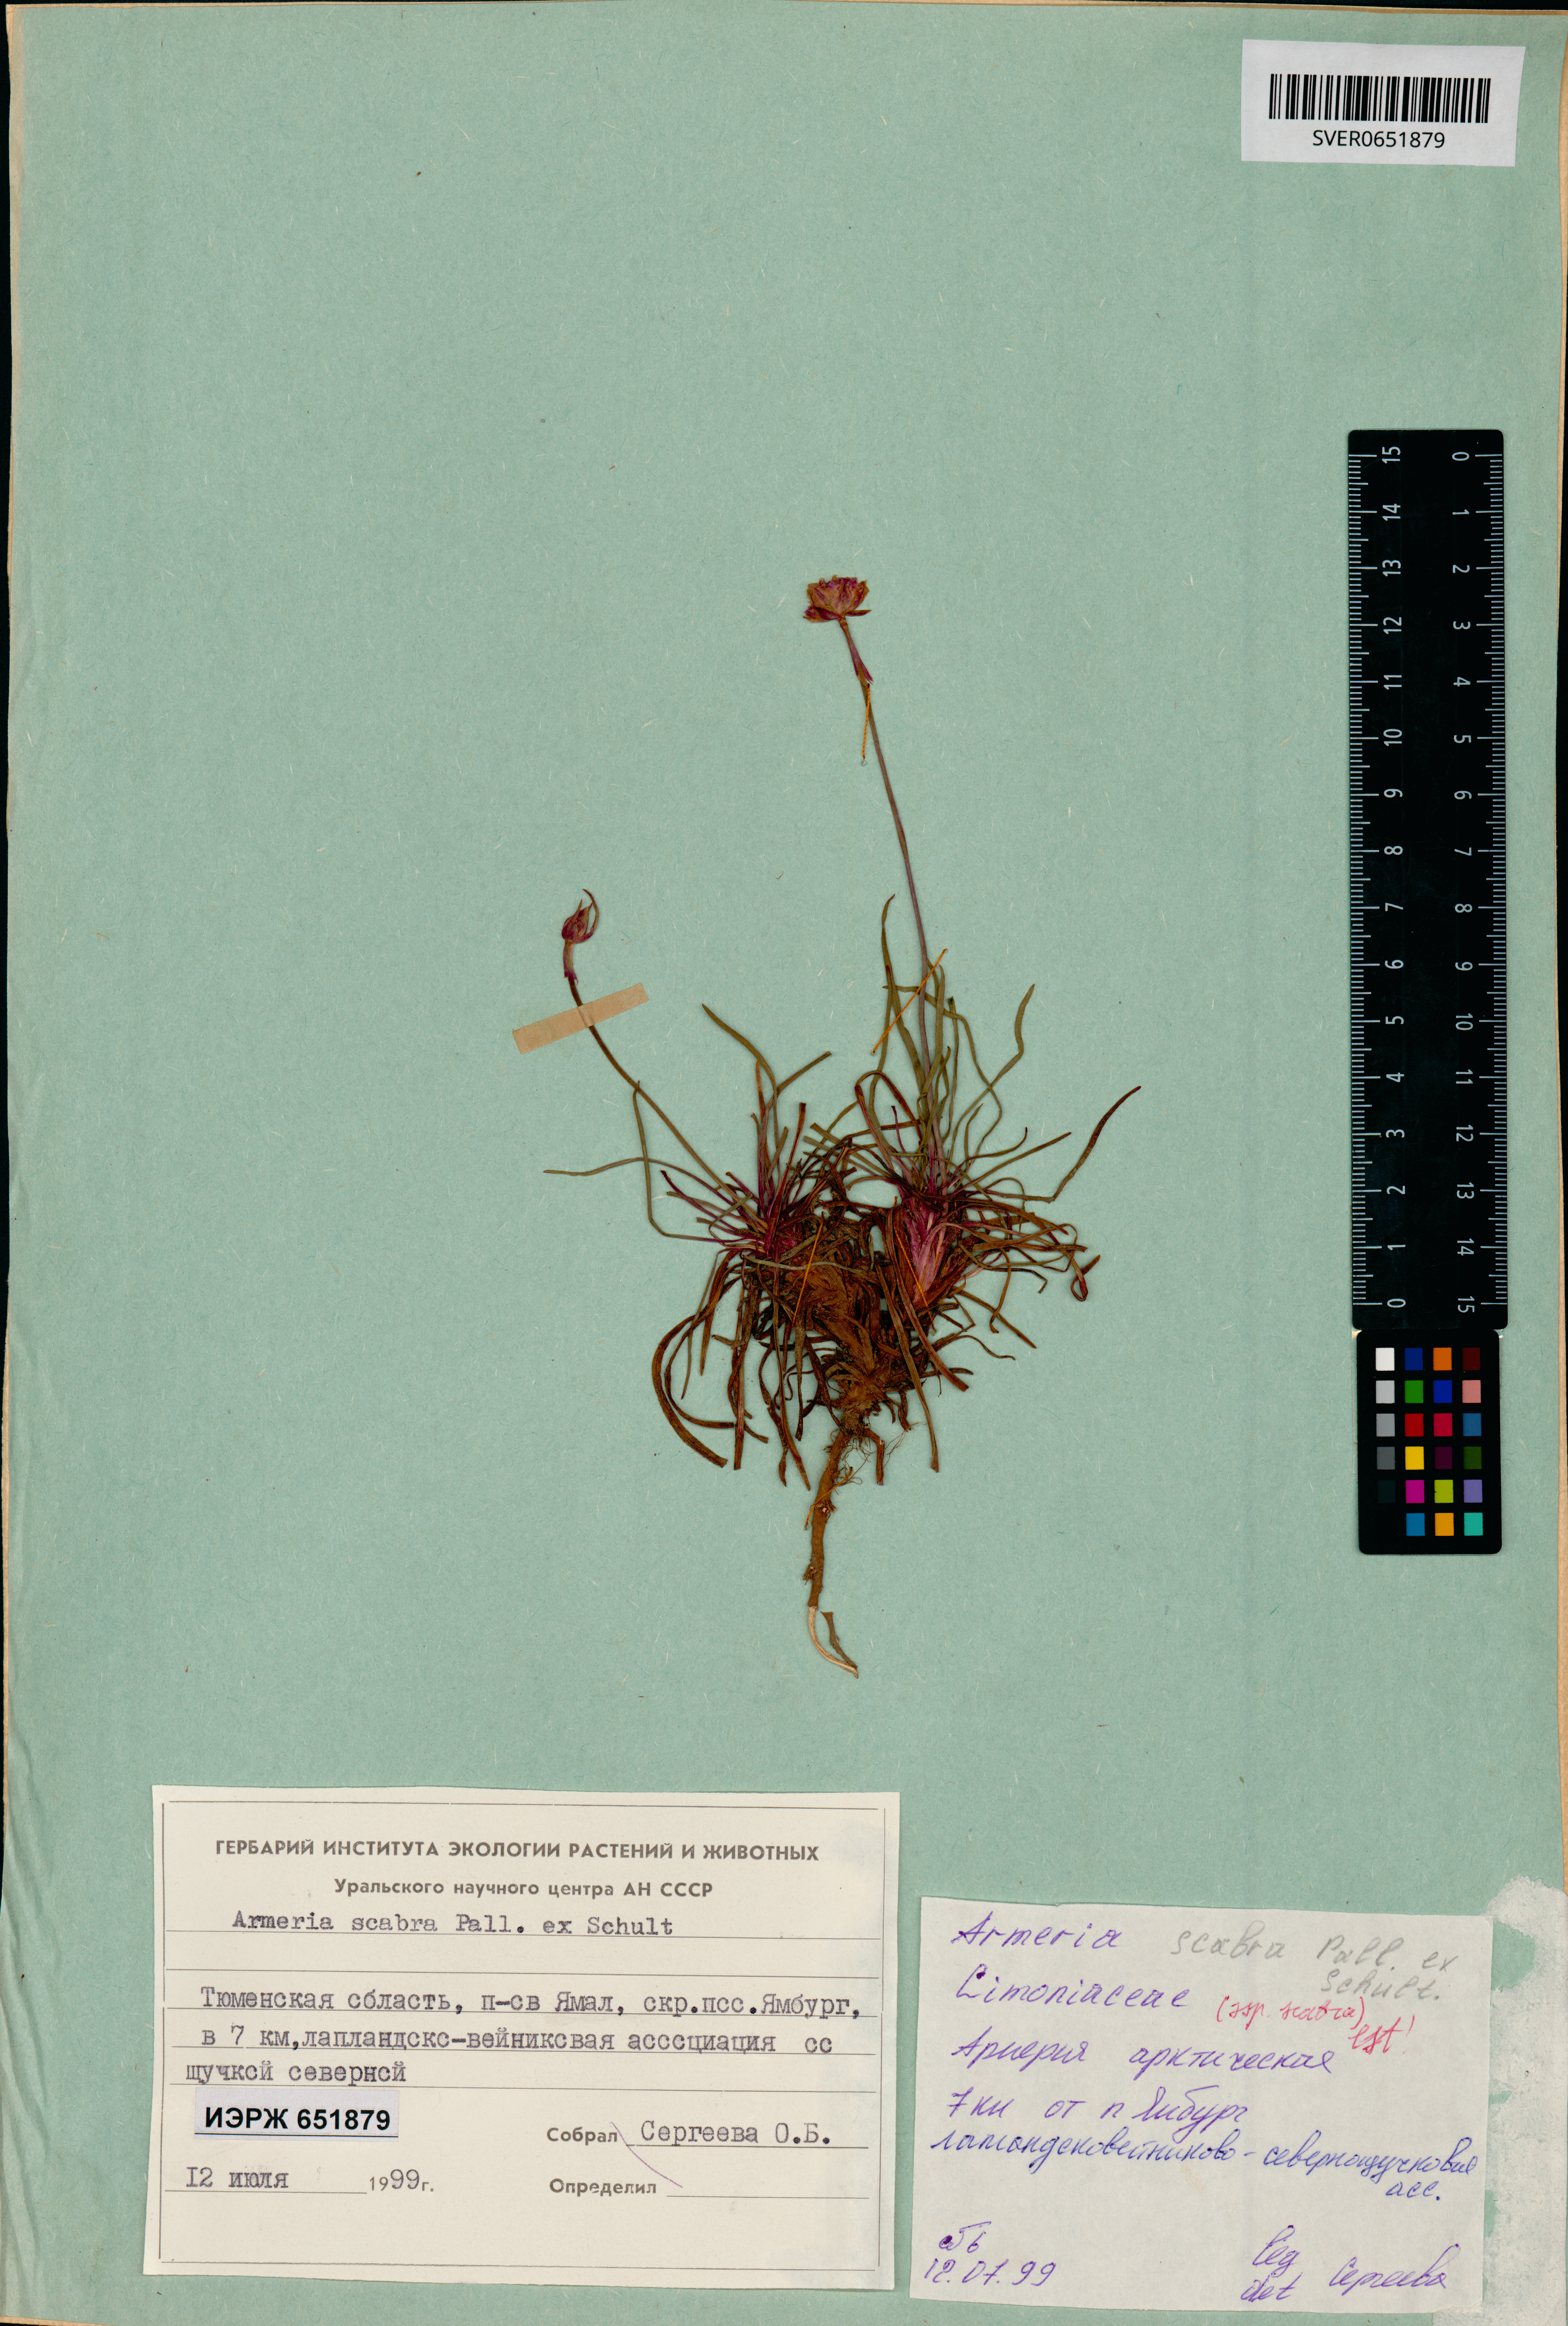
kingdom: Plantae
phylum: Tracheophyta
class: Magnoliopsida
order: Caryophyllales
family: Plumbaginaceae
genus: Armeria
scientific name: Armeria maritima
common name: Thrift
